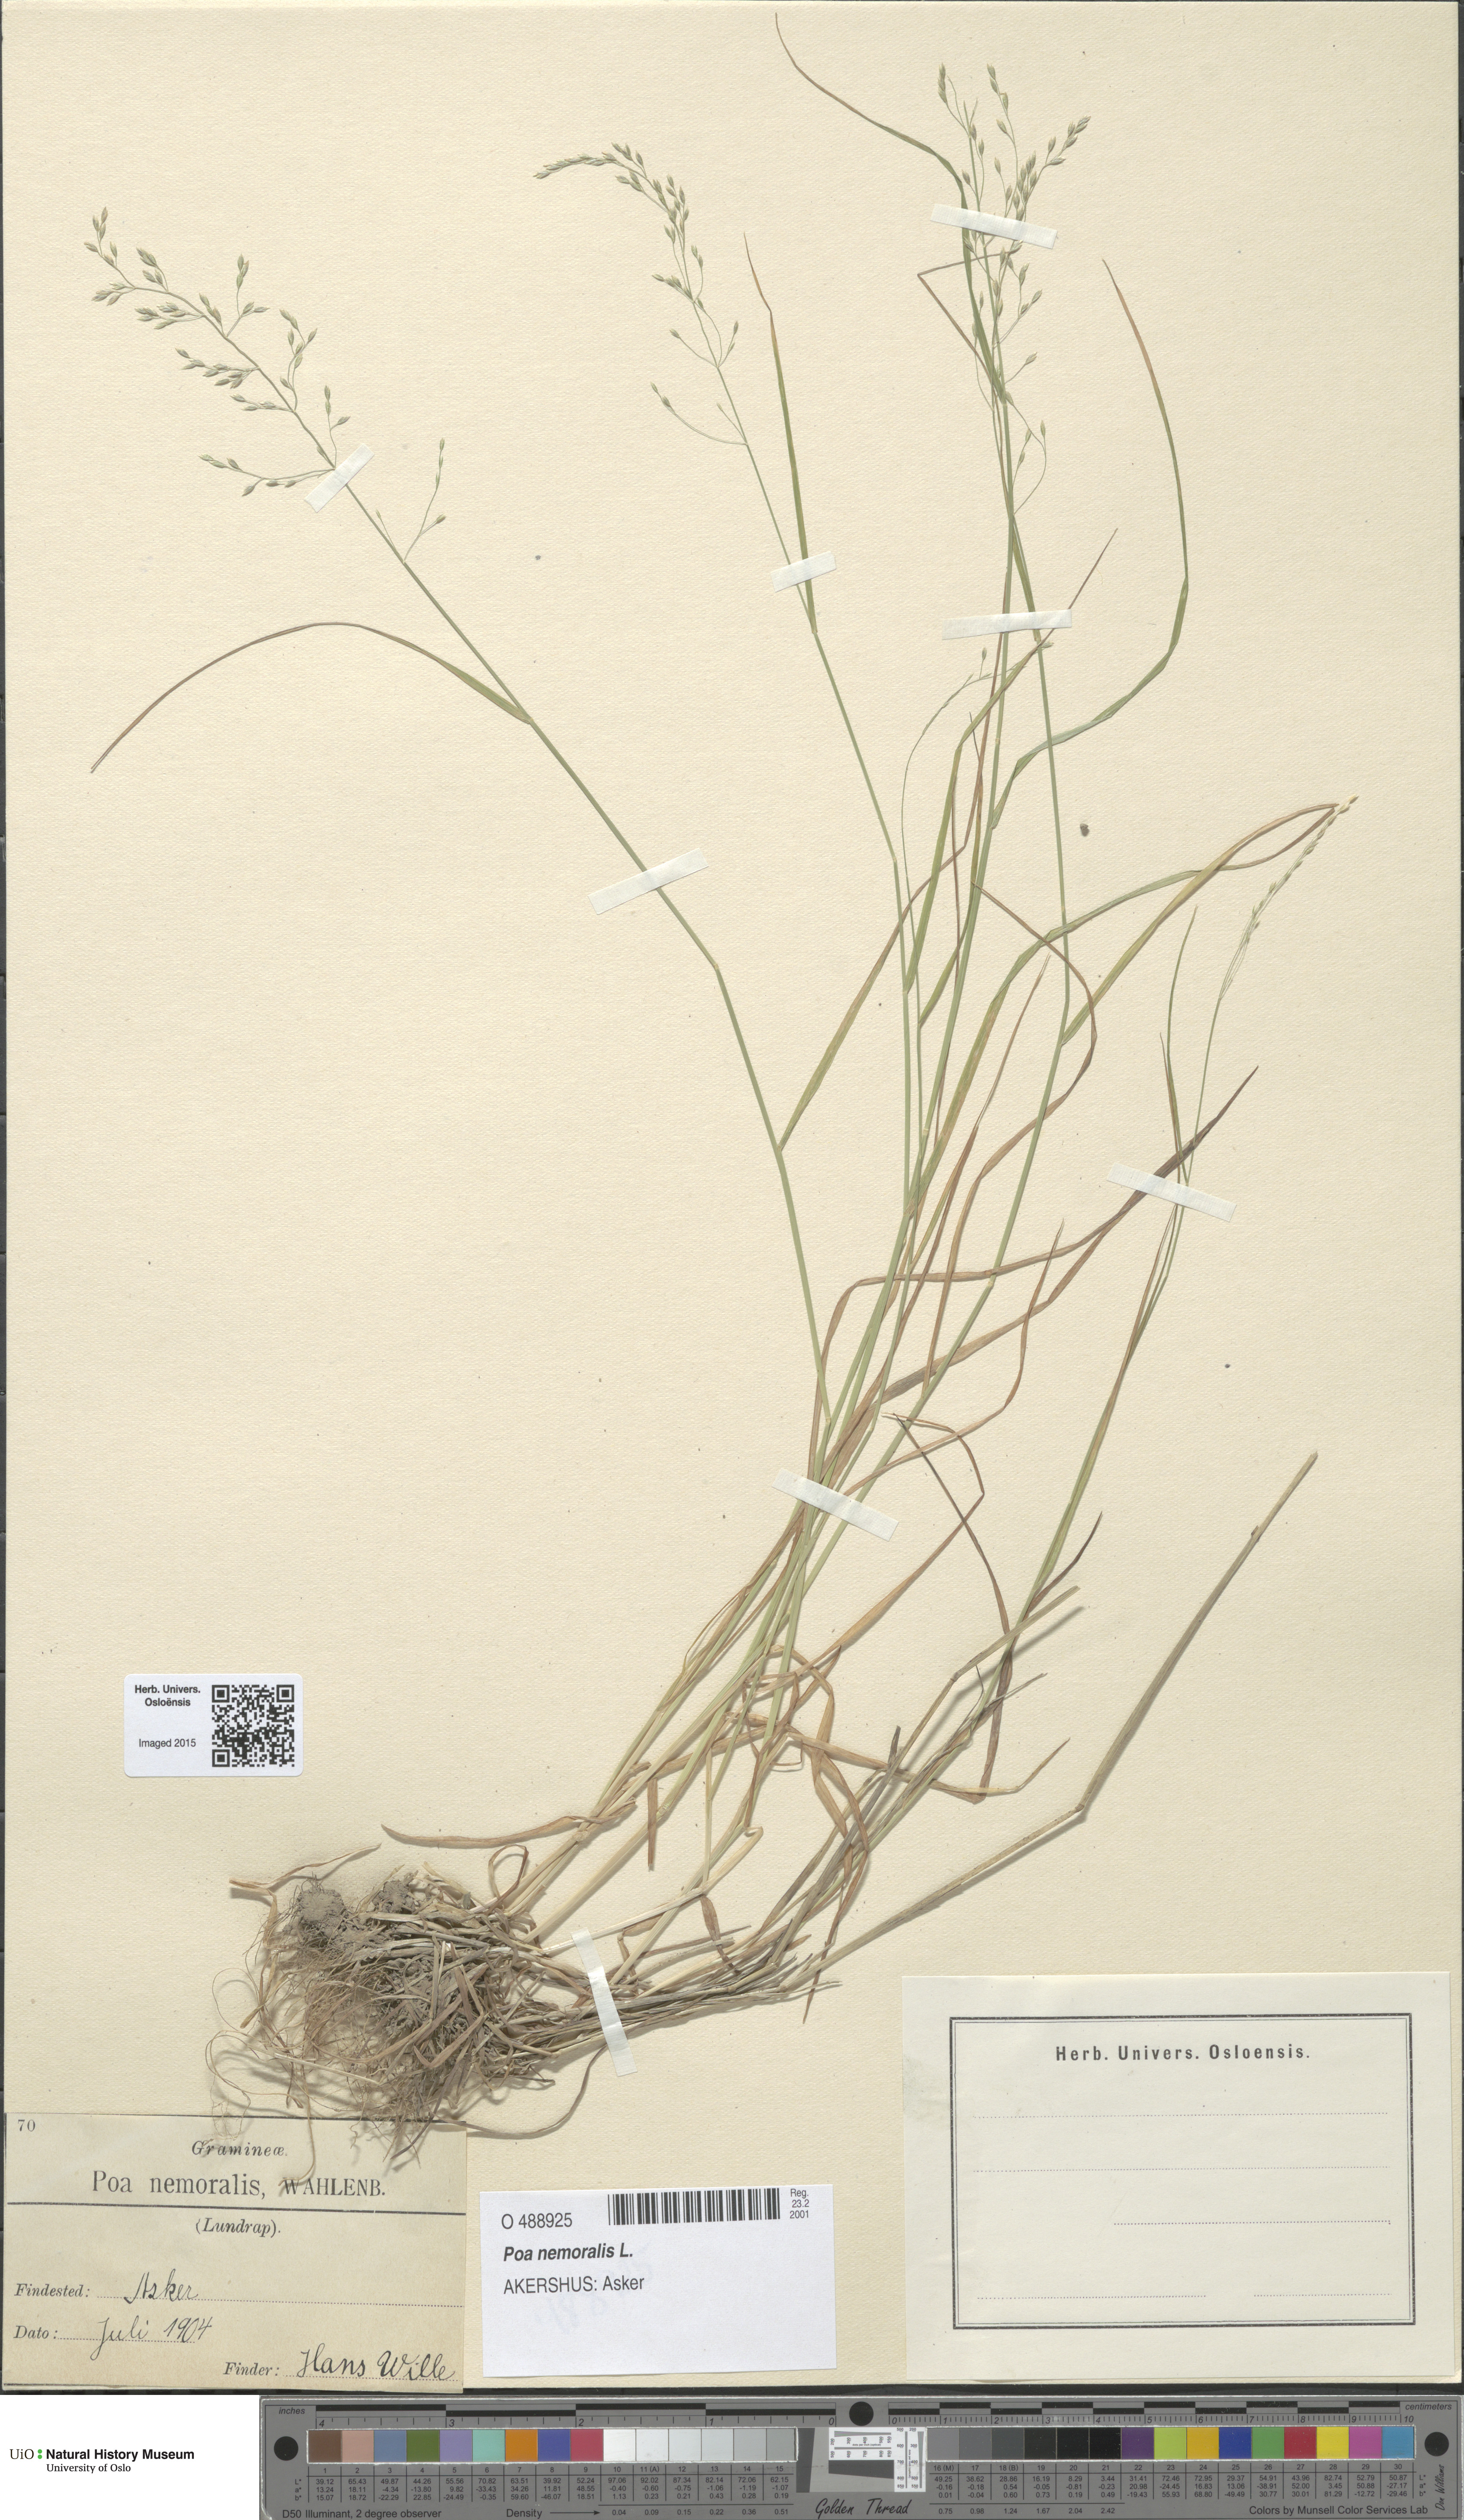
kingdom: Plantae
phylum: Tracheophyta
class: Liliopsida
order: Poales
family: Poaceae
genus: Poa
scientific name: Poa nemoralis
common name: Wood bluegrass
